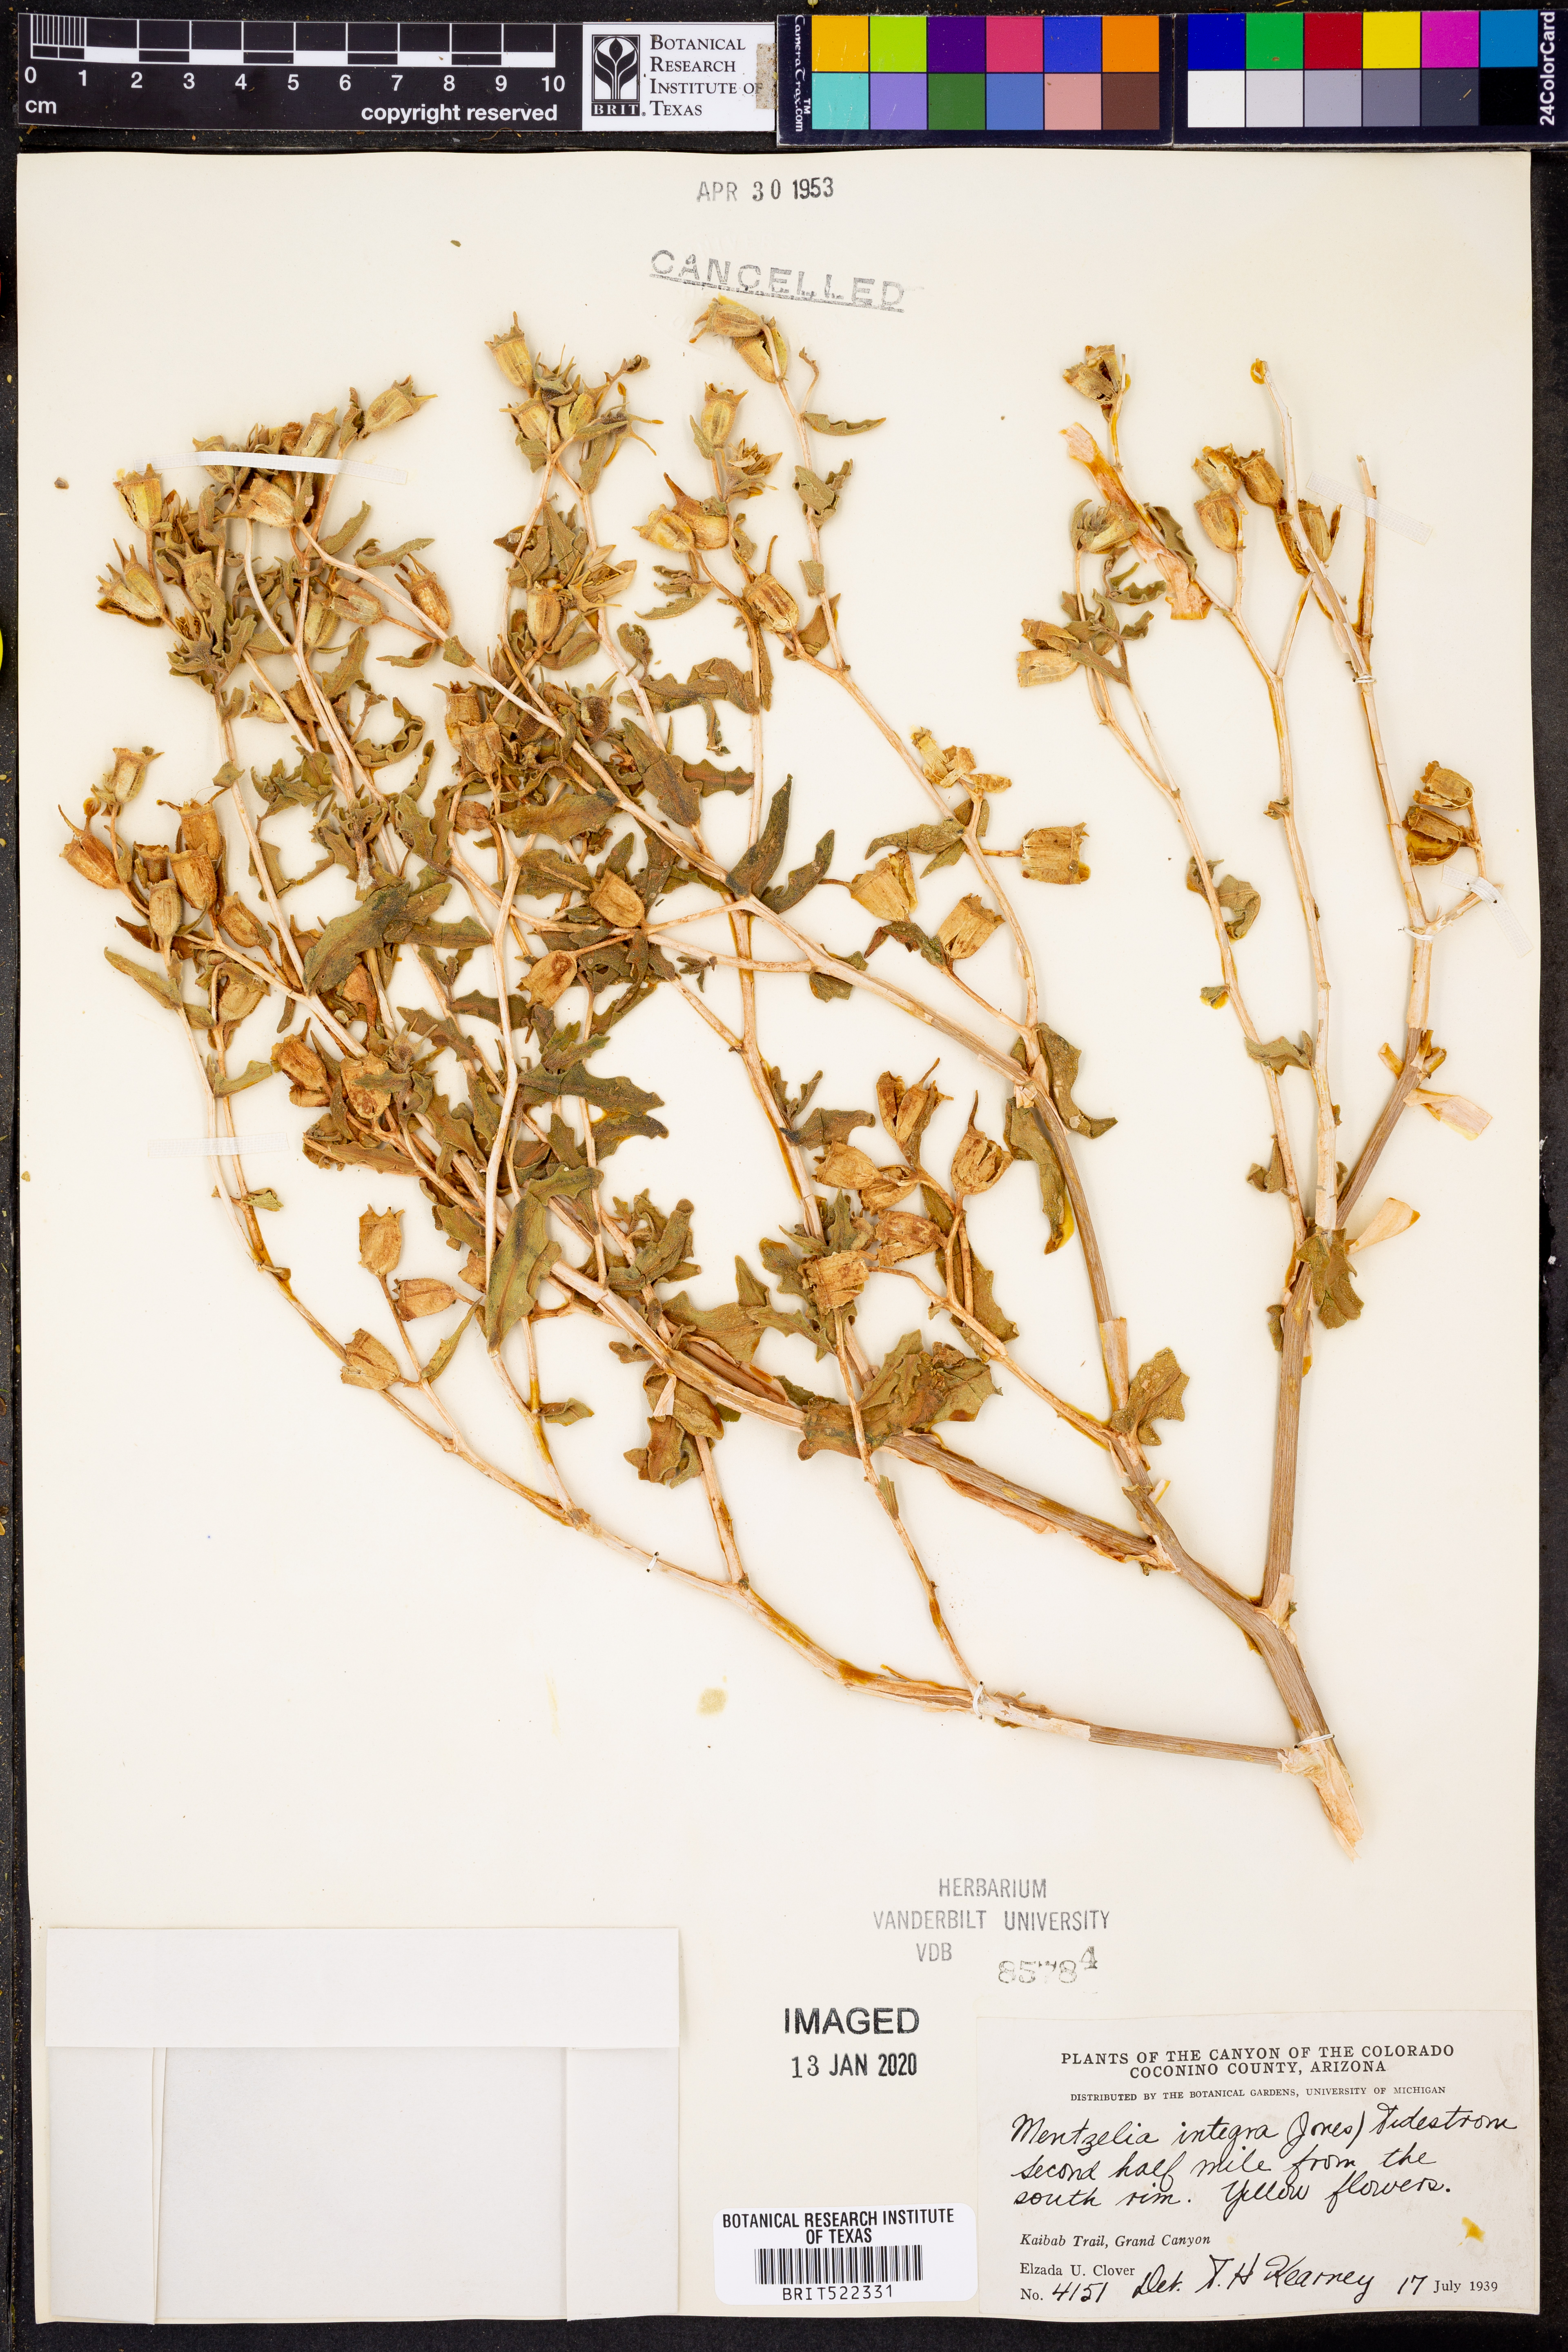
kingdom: Plantae
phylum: Tracheophyta
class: Magnoliopsida
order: Cornales
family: Loasaceae
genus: Mentzelia
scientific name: Mentzelia integra
